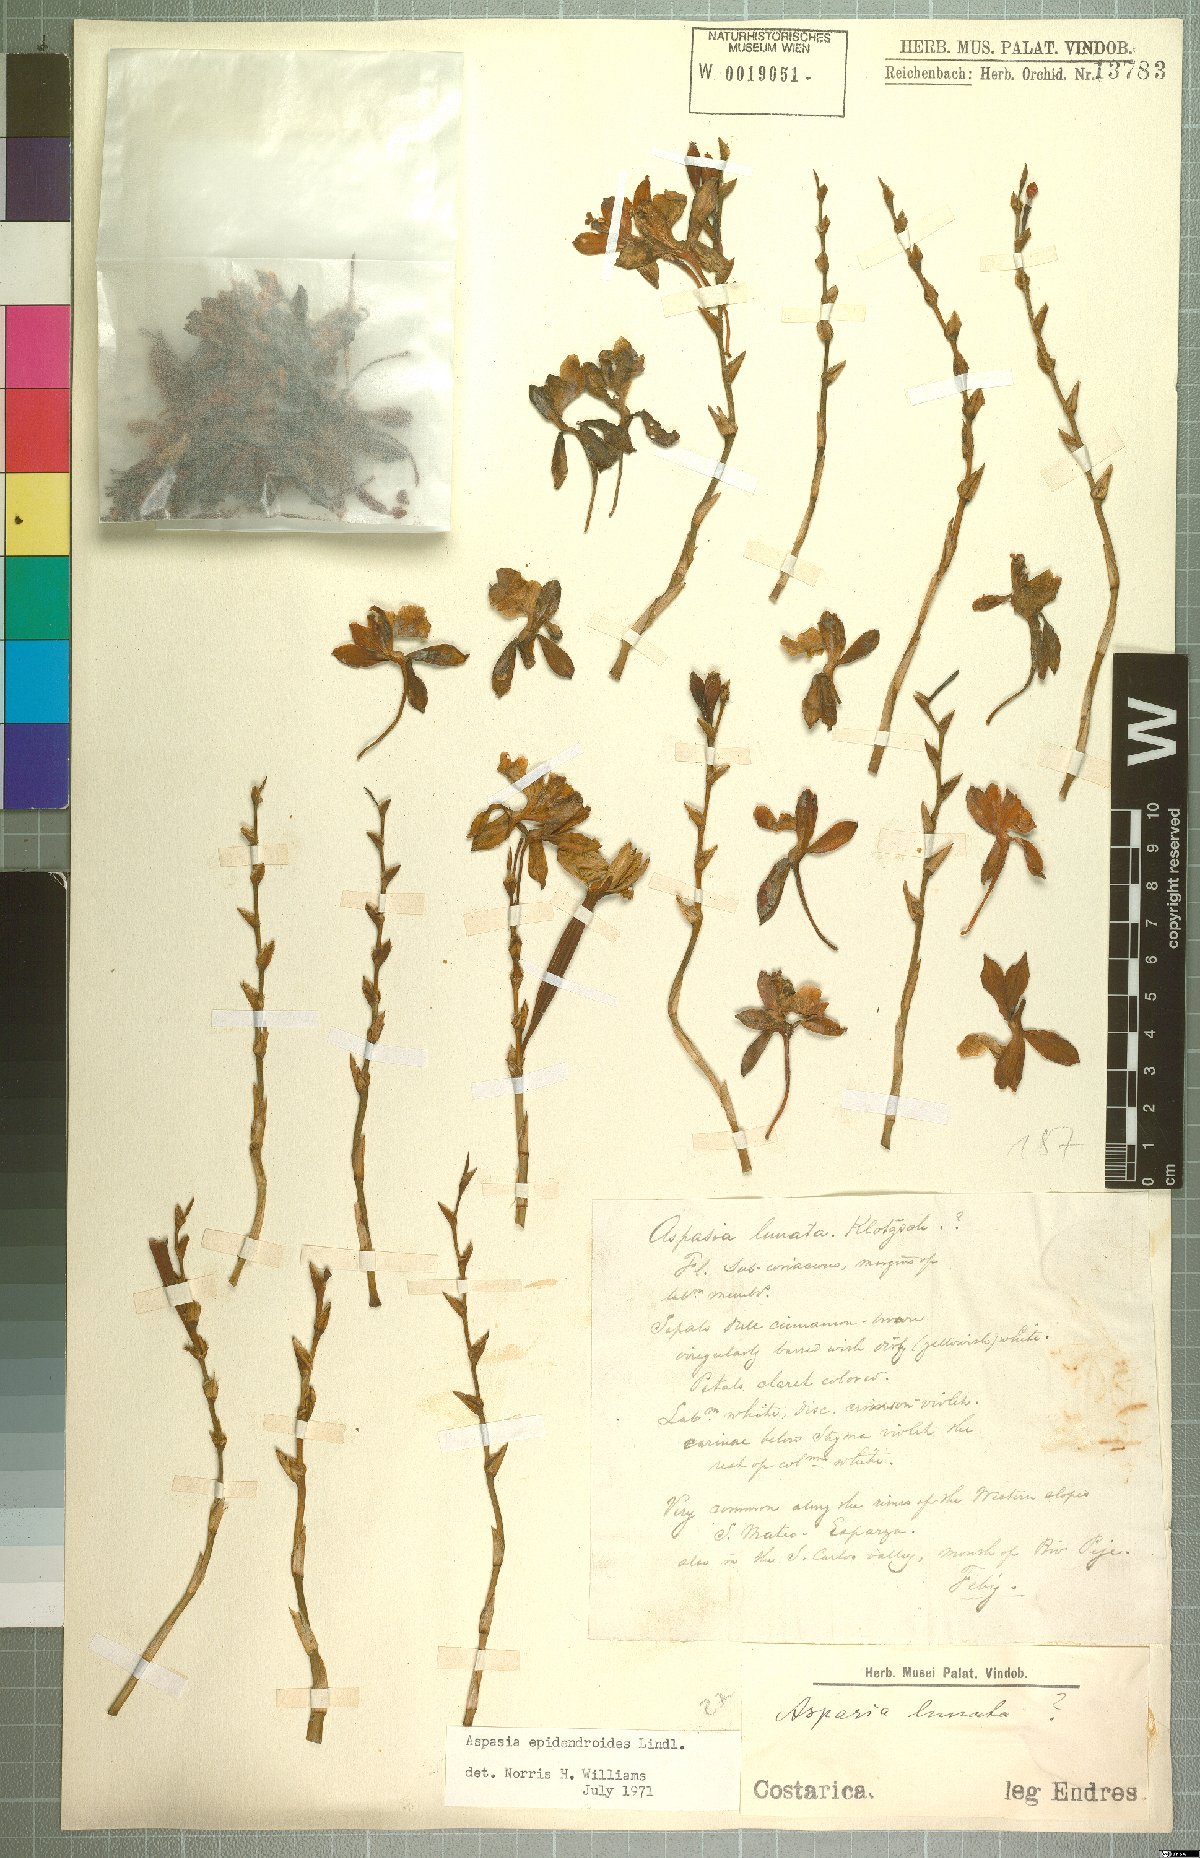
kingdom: Plantae
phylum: Tracheophyta
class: Liliopsida
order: Asparagales
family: Orchidaceae
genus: Aspasia
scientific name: Aspasia epidendroides
